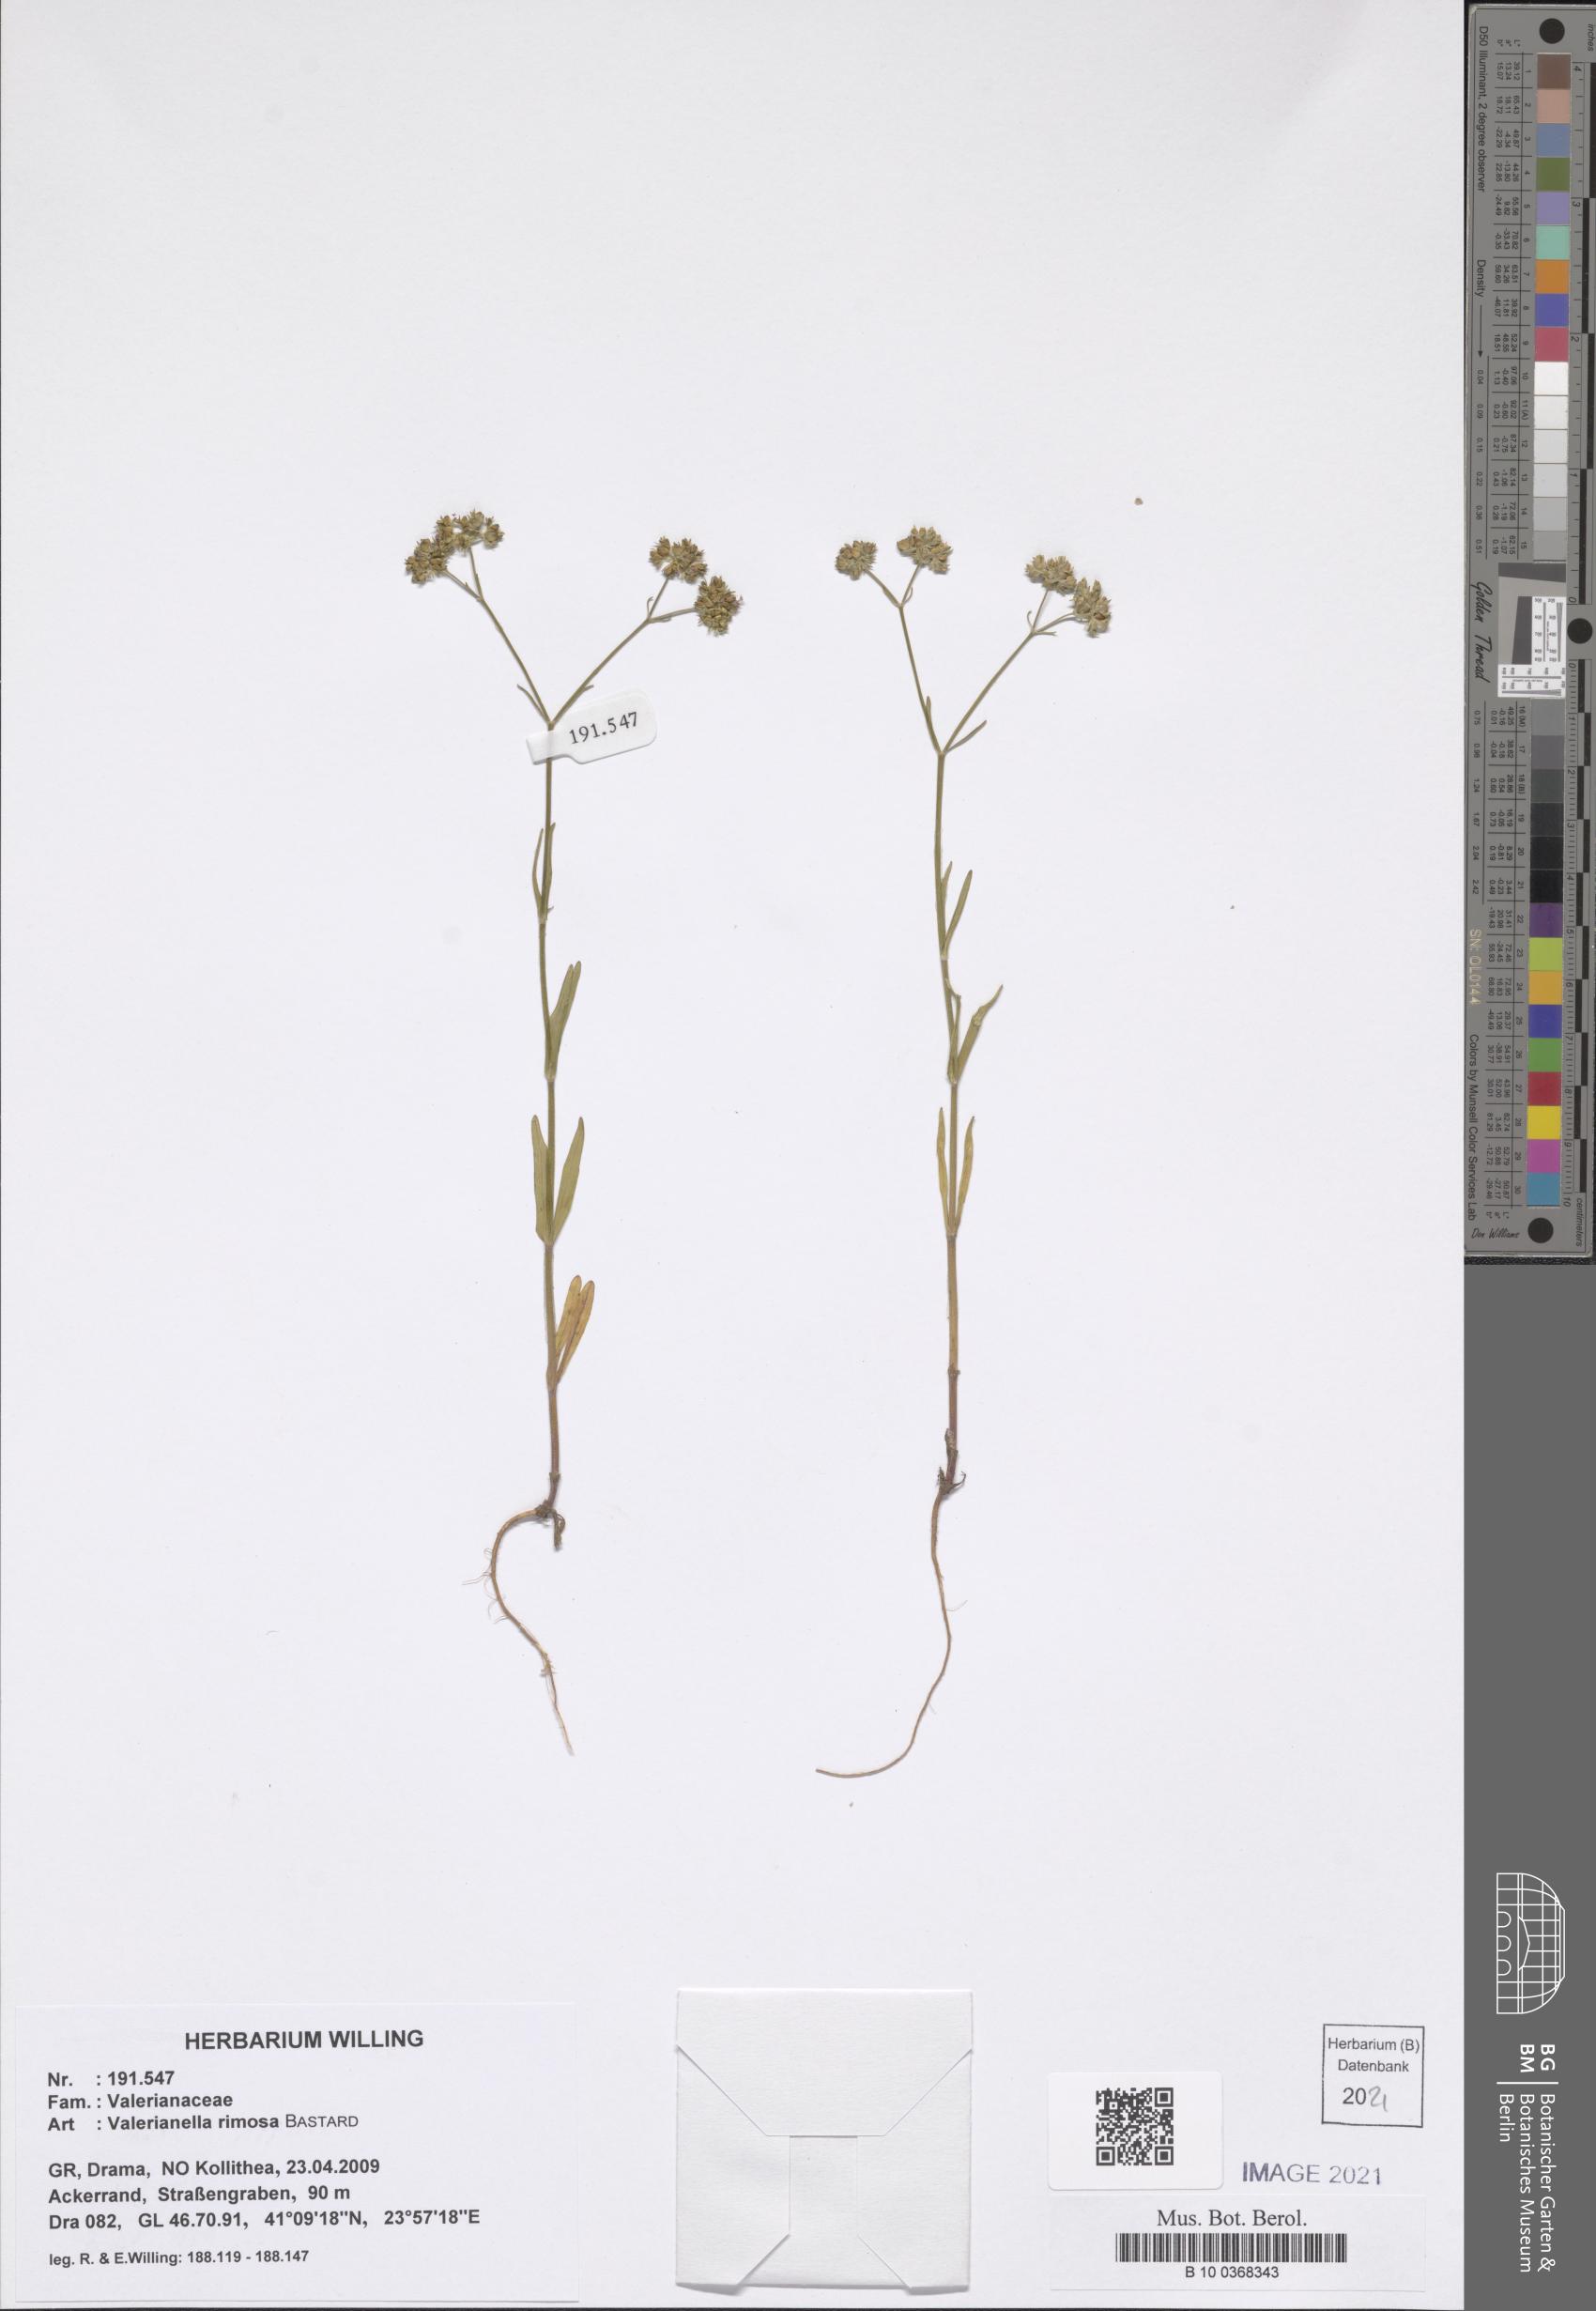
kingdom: Plantae
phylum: Tracheophyta
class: Magnoliopsida
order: Dipsacales
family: Caprifoliaceae
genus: Valerianella
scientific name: Valerianella rimosa
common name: Broad-fruited cornsalad
